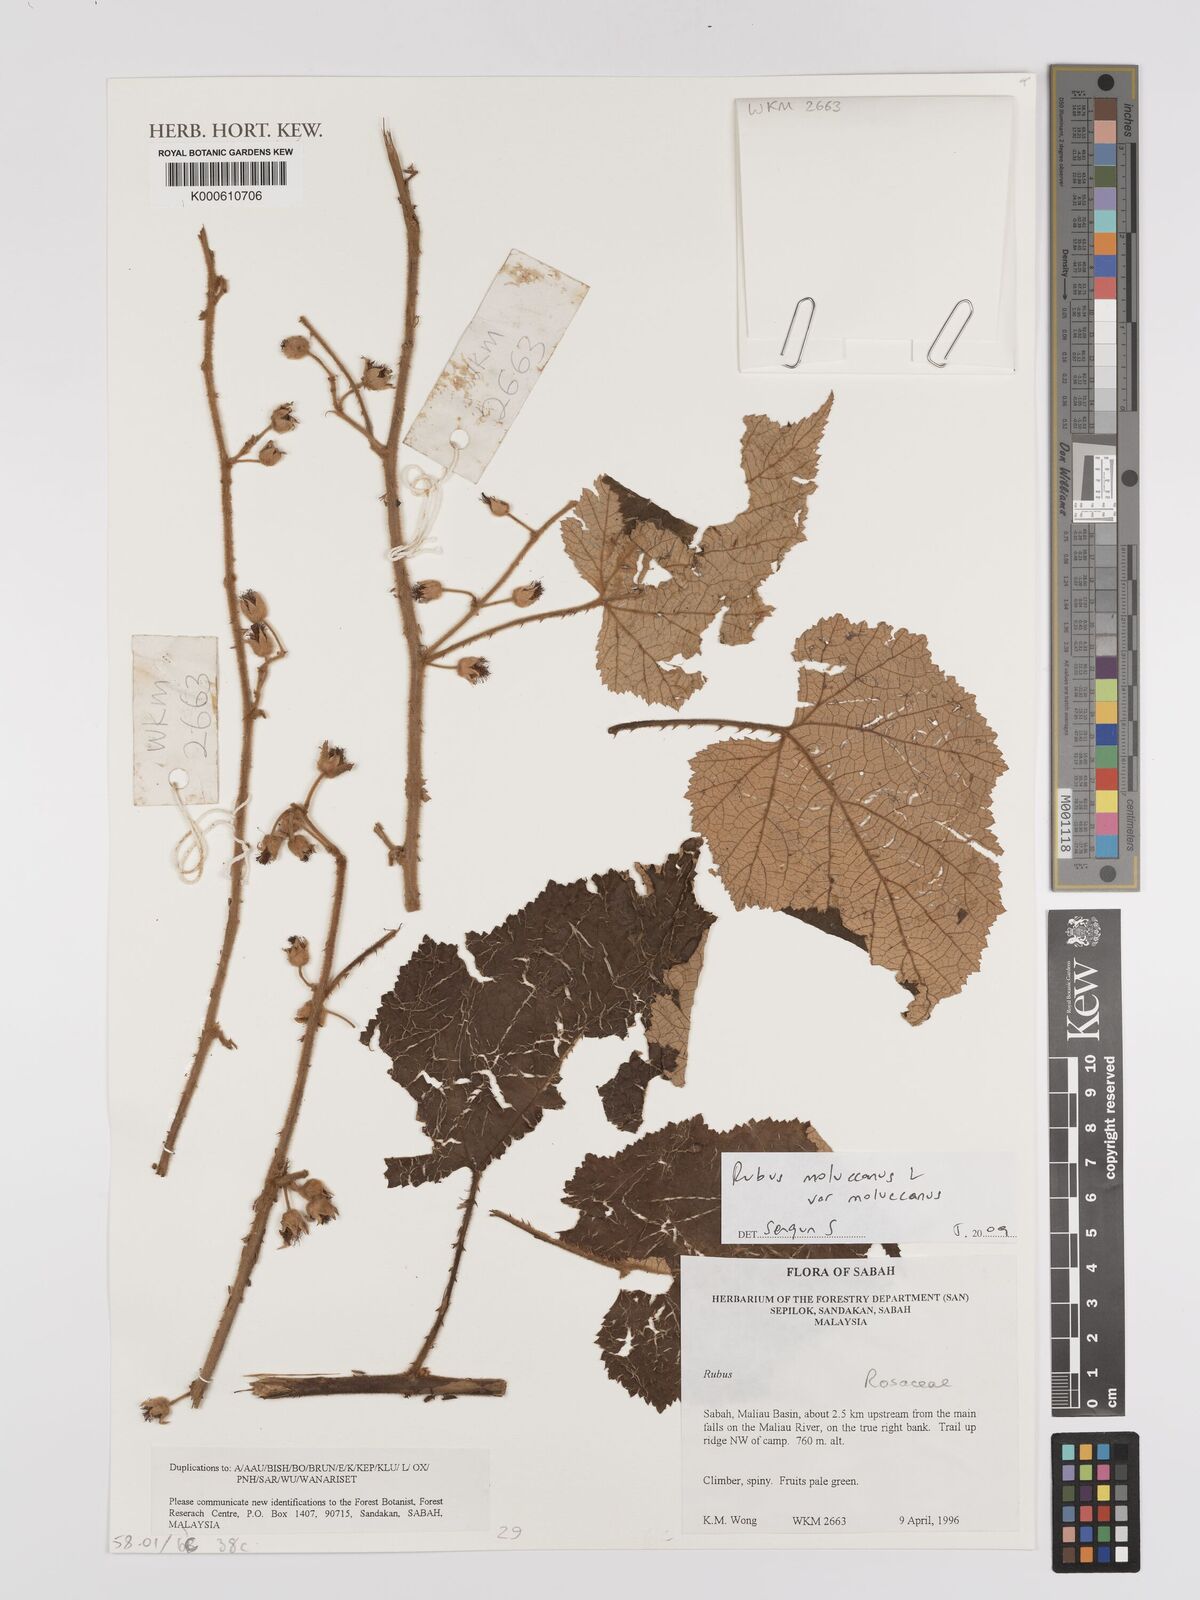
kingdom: Plantae
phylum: Tracheophyta
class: Magnoliopsida
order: Rosales
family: Rosaceae
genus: Rubus
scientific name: Rubus moluccanus
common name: Wild raspberry
